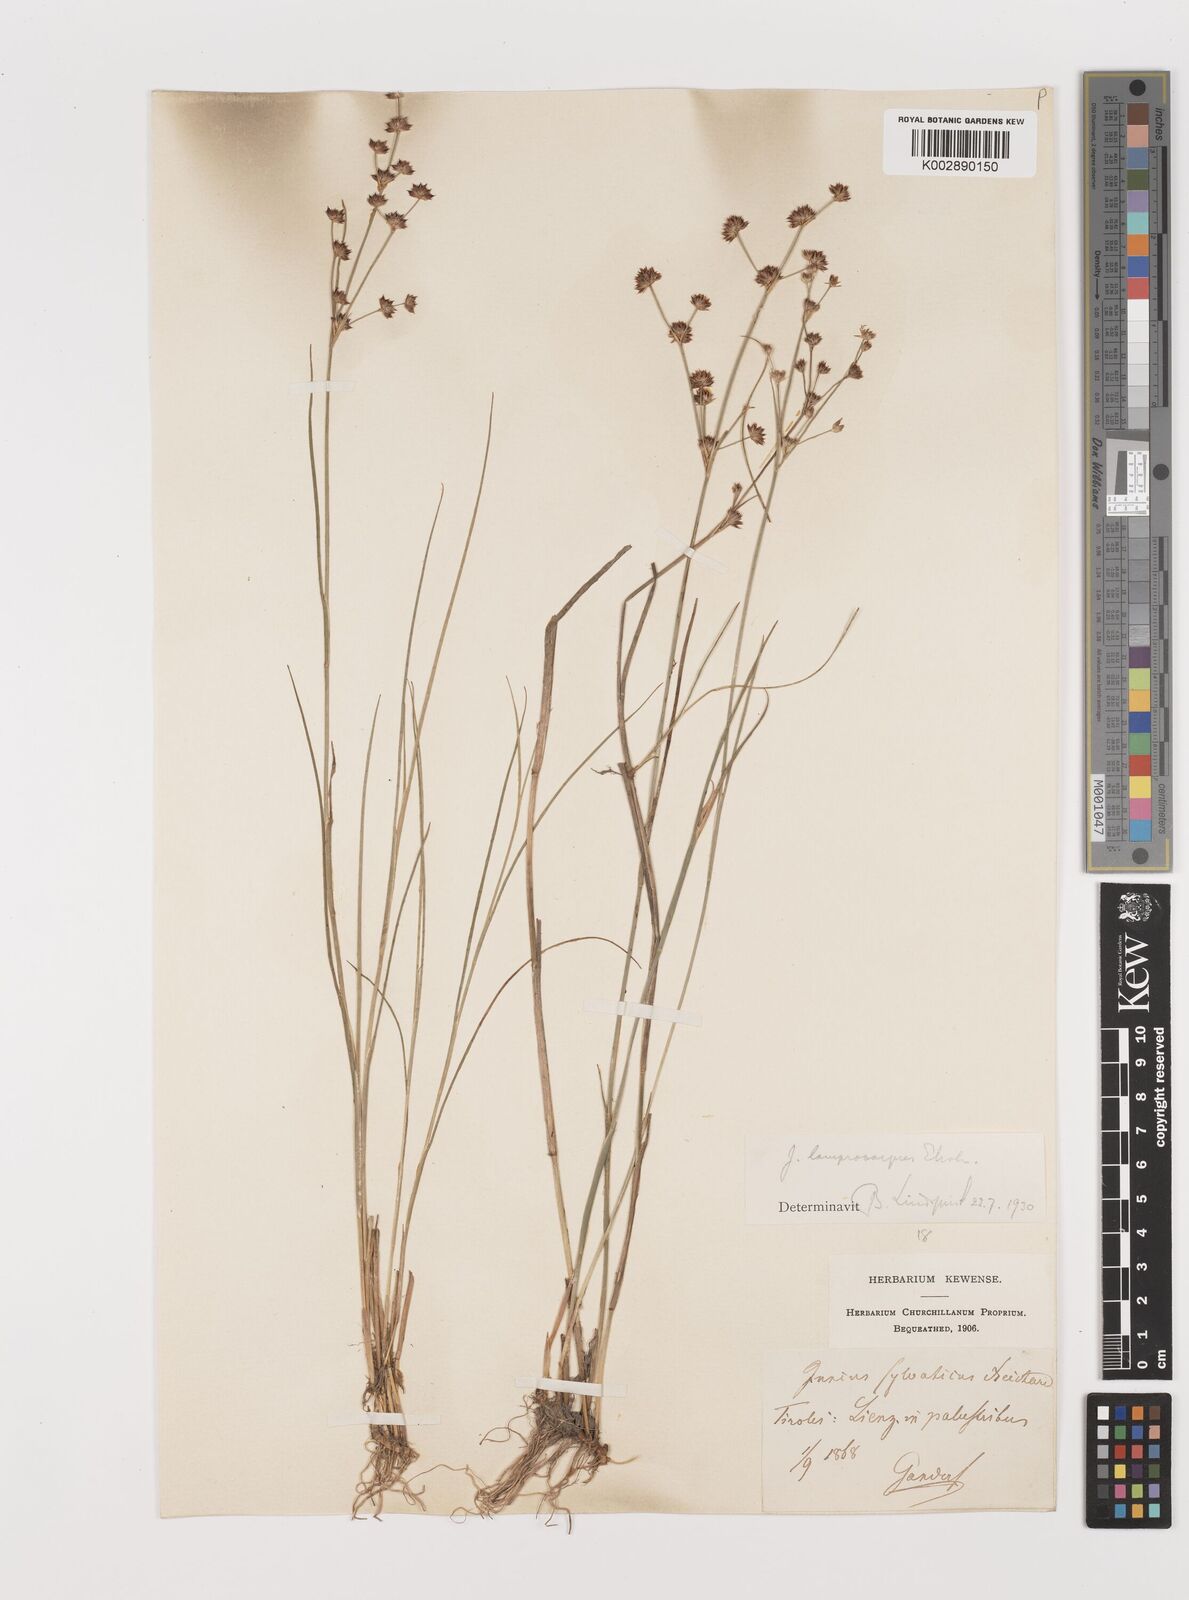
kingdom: Plantae
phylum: Tracheophyta
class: Liliopsida
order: Poales
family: Juncaceae
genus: Juncus
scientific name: Juncus articulatus
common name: Jointed rush
